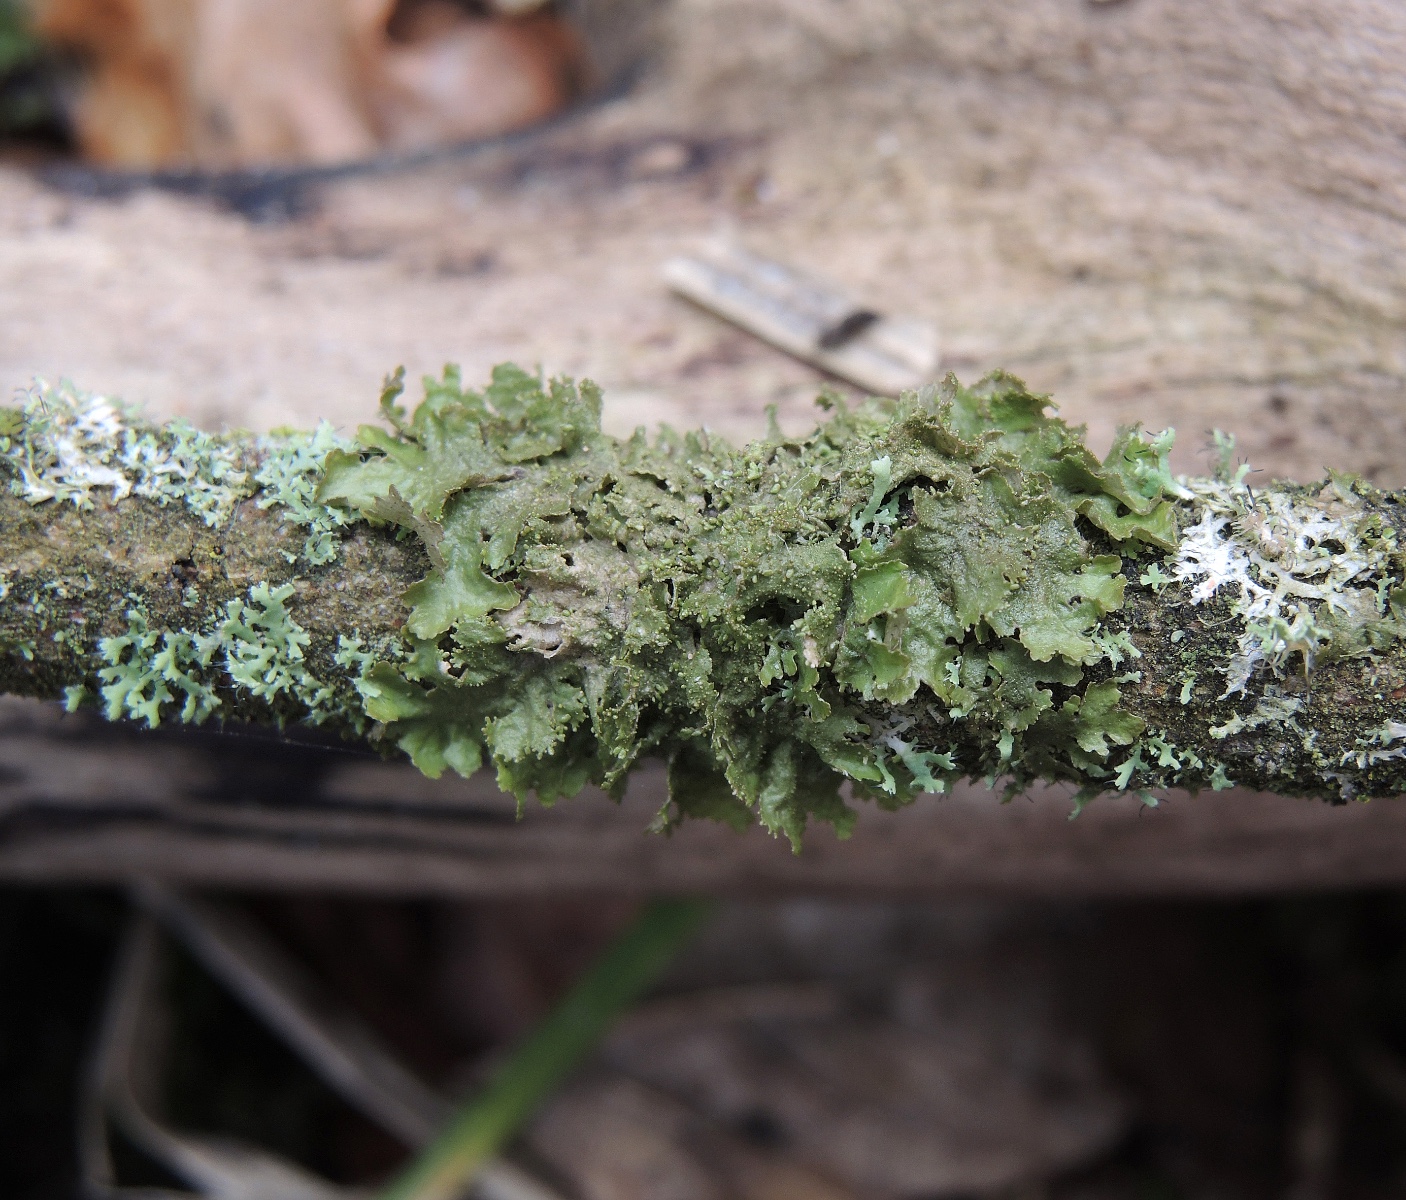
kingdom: Fungi
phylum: Ascomycota
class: Lecanoromycetes
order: Lecanorales
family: Parmeliaceae
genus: Melanohalea
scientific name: Melanohalea exasperatula
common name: kølle-skållav
